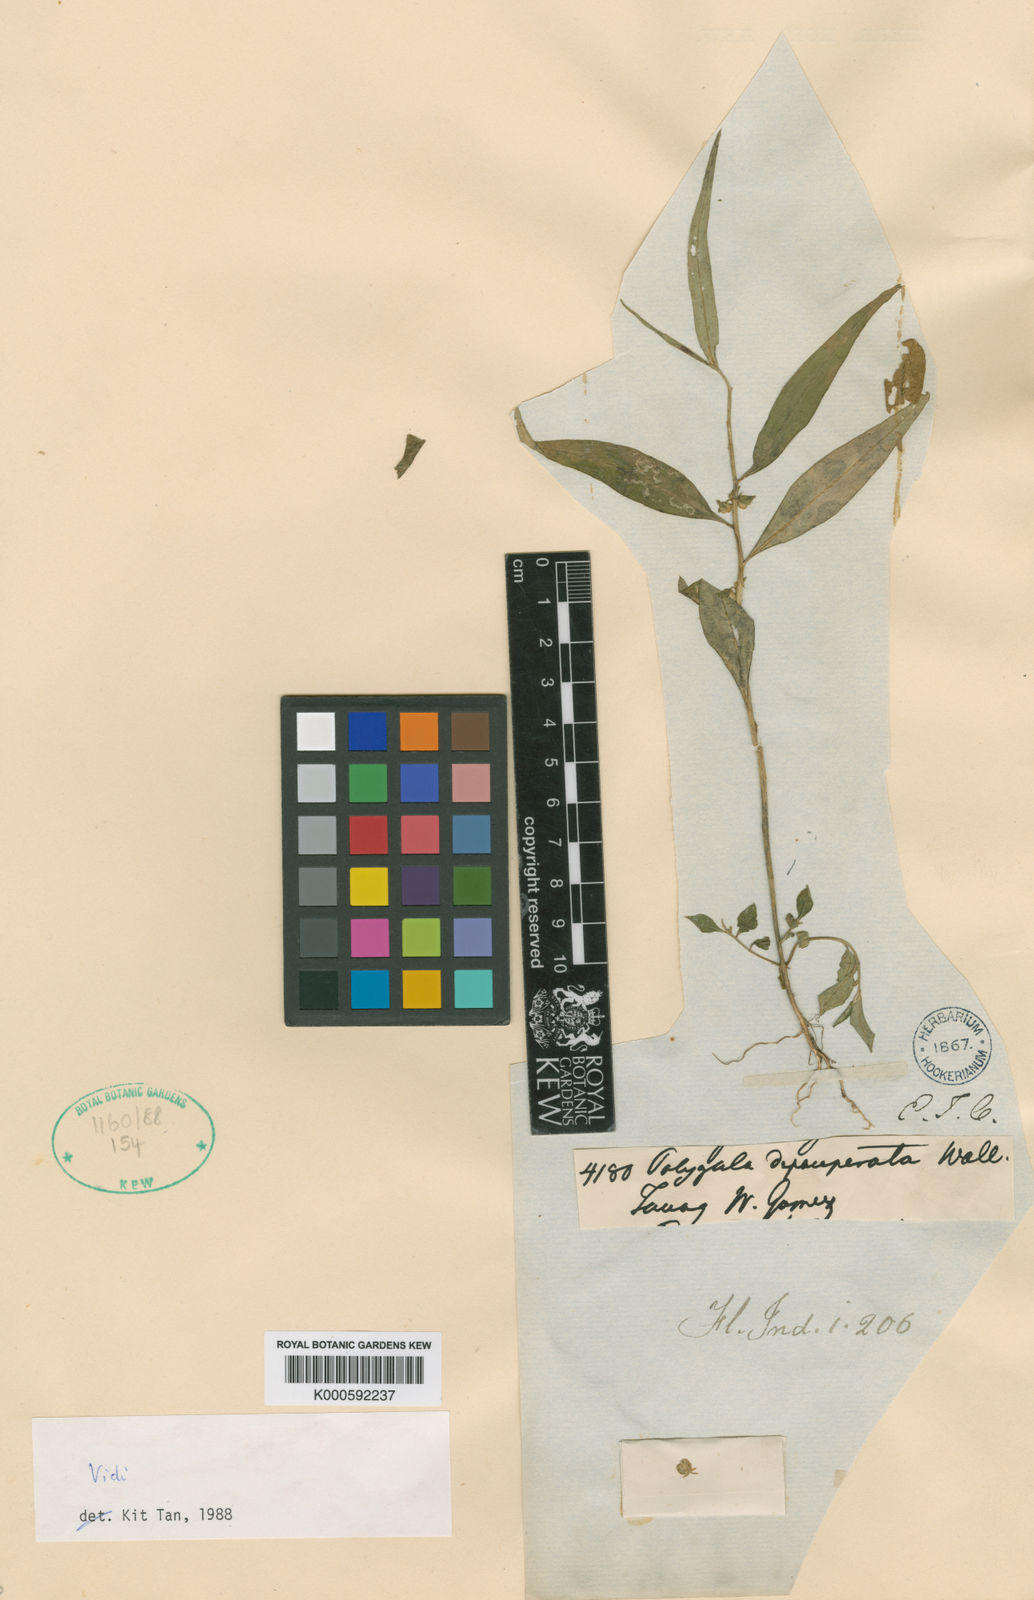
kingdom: Plantae
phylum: Tracheophyta
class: Magnoliopsida
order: Fabales
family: Polygalaceae
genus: Polygala
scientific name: Polygala glomerata
